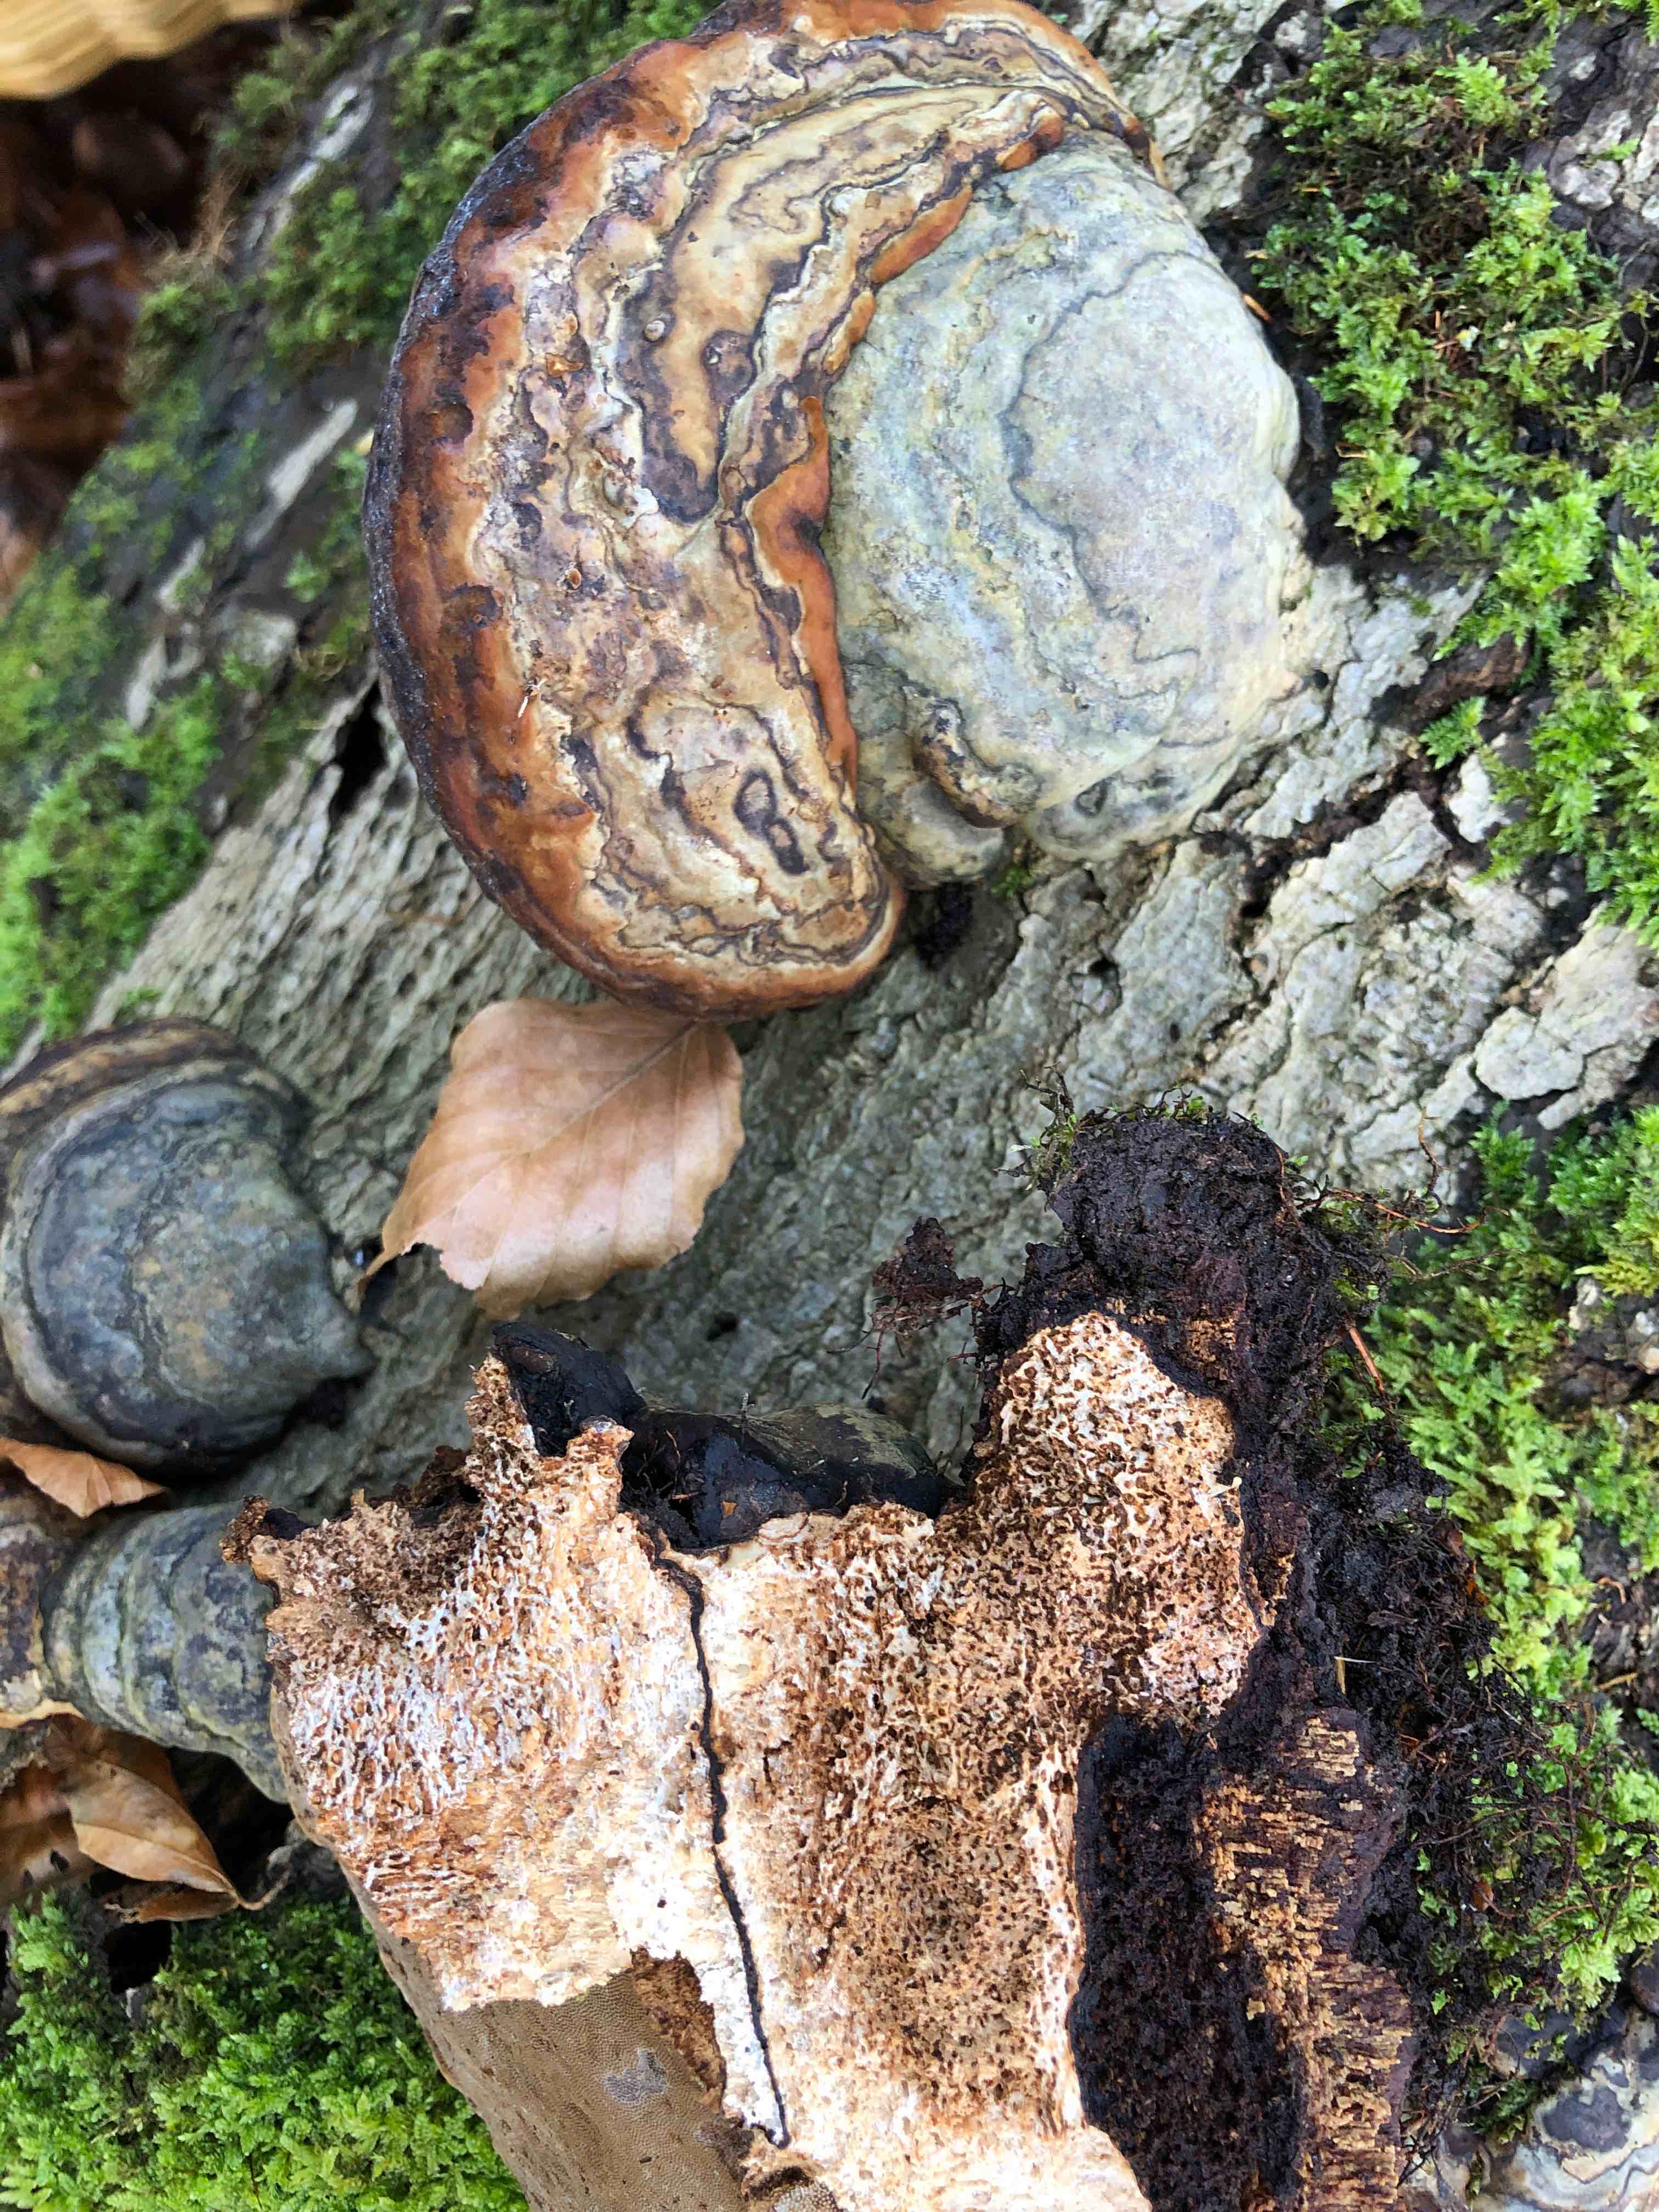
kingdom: Fungi
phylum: Basidiomycota
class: Agaricomycetes
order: Polyporales
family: Polyporaceae
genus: Fomes
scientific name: Fomes fomentarius
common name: tøndersvamp
